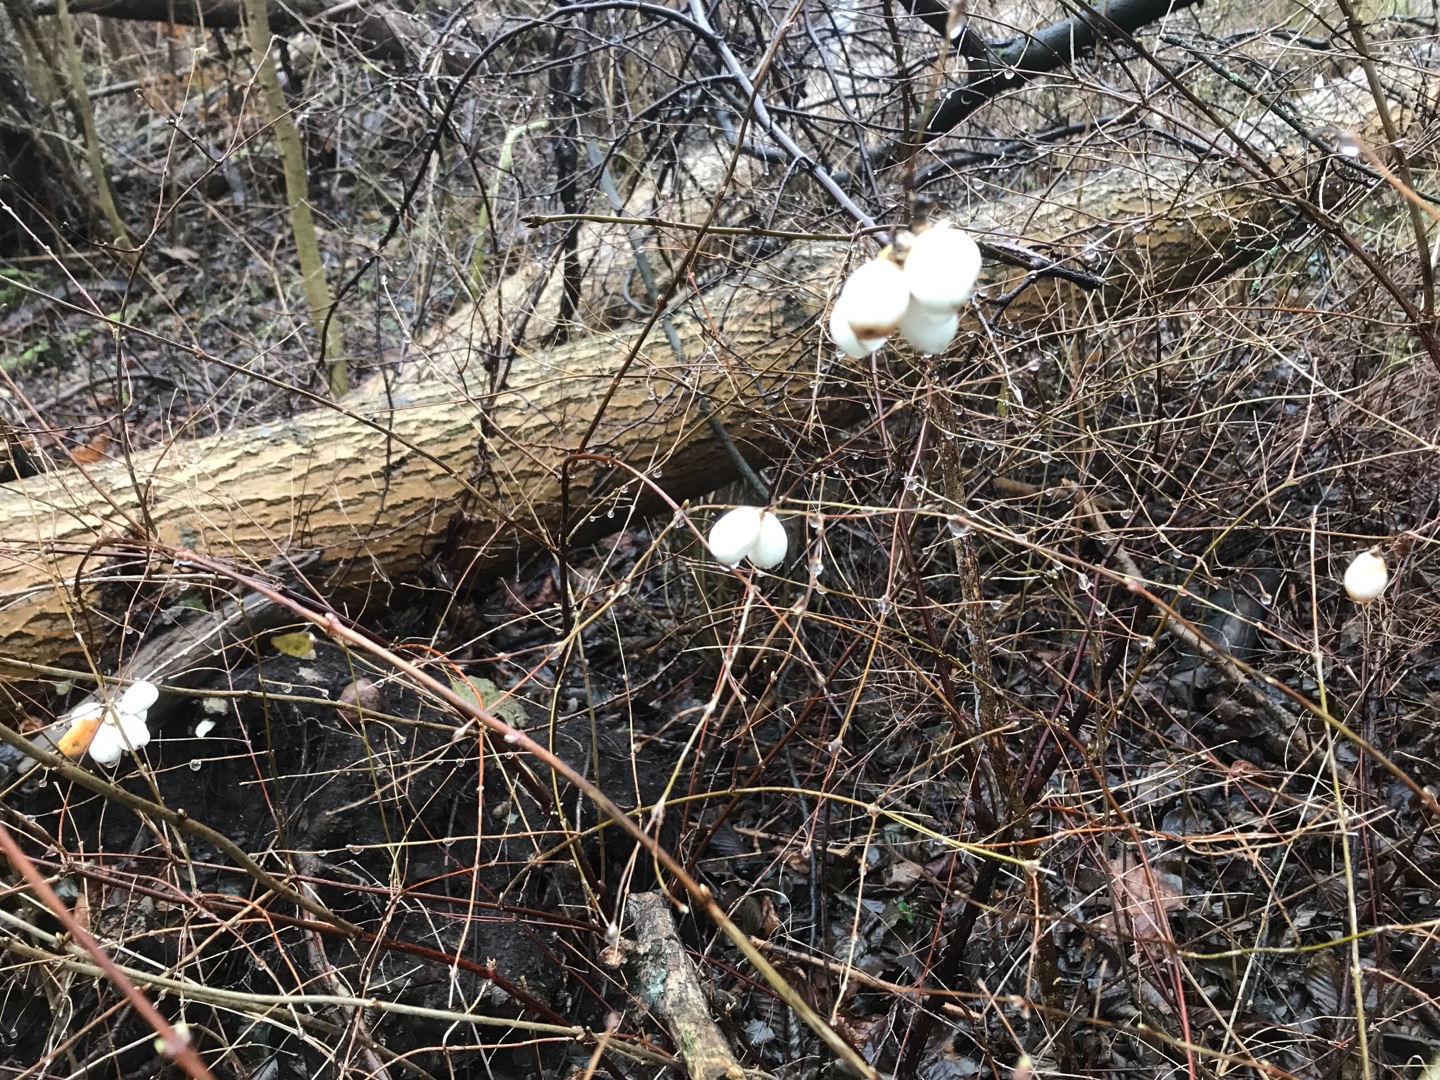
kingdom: Plantae
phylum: Tracheophyta
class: Magnoliopsida
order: Dipsacales
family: Caprifoliaceae
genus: Symphoricarpos
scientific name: Symphoricarpos albus
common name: Almindelig snebær
